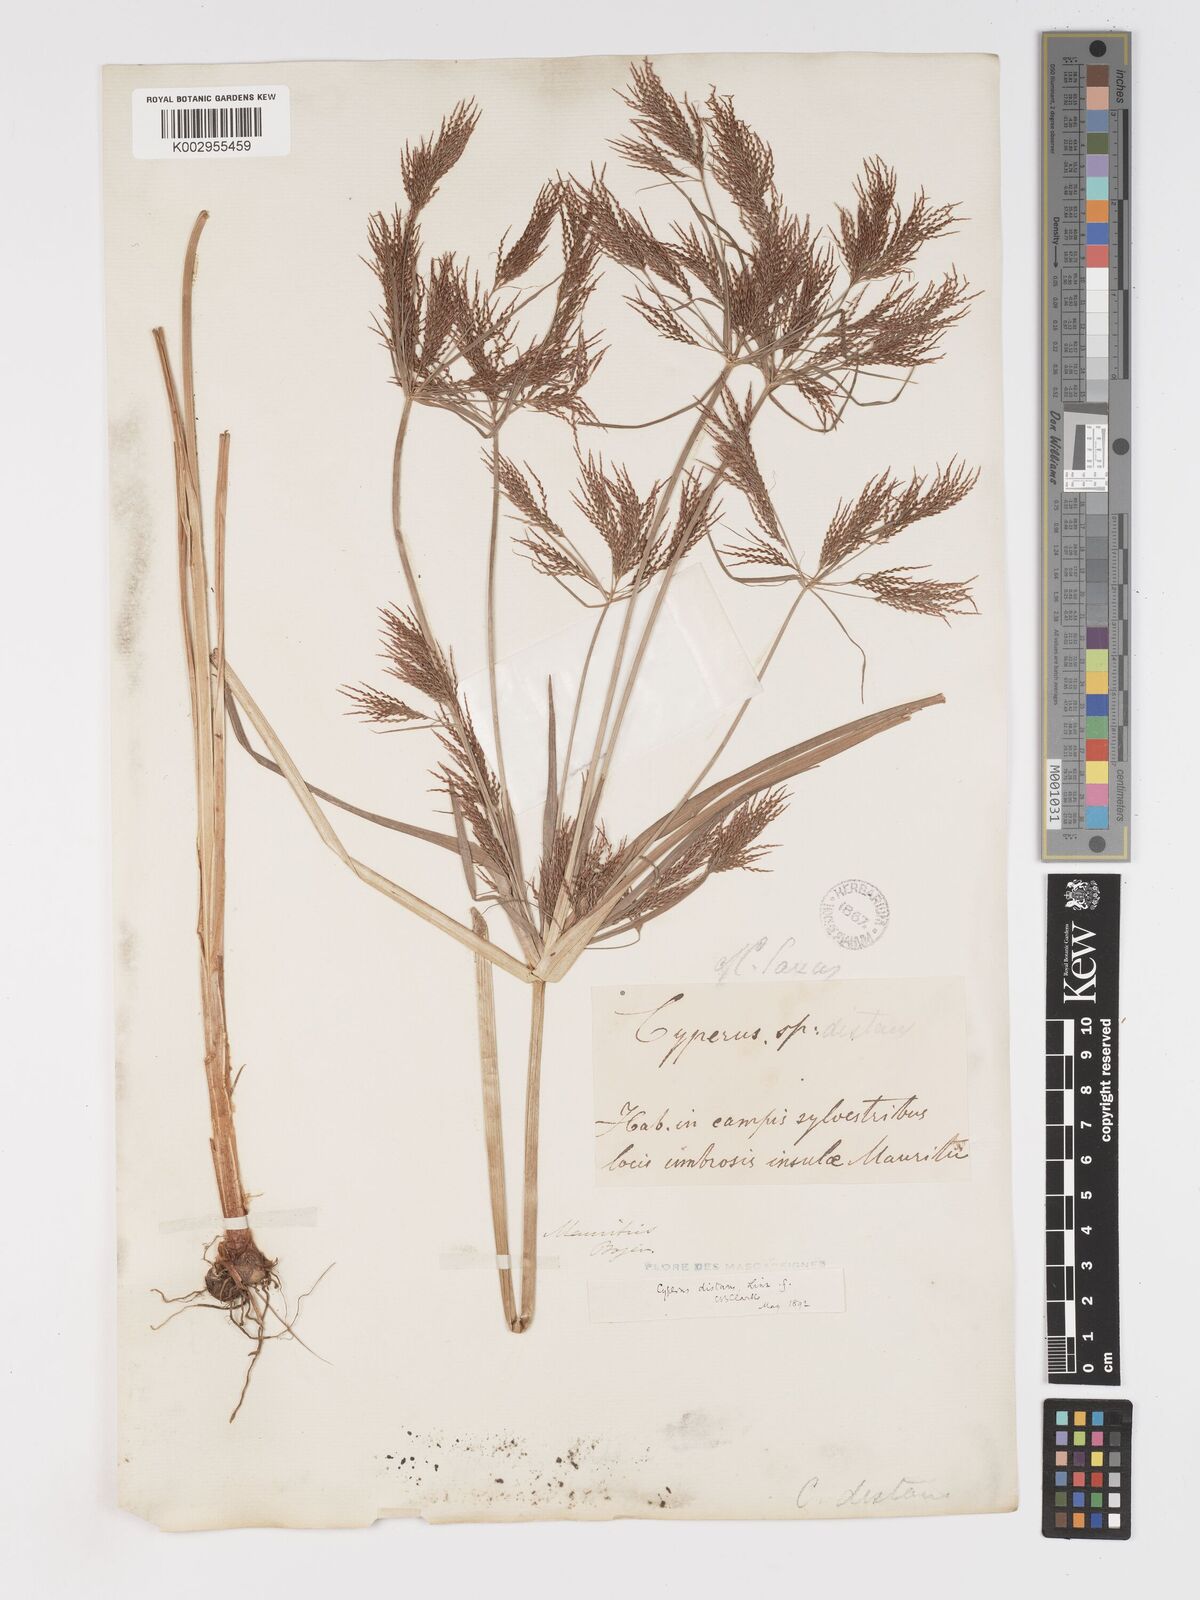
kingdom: Plantae
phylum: Tracheophyta
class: Liliopsida
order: Poales
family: Cyperaceae
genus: Cyperus
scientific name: Cyperus distans
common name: Slender cyperus
